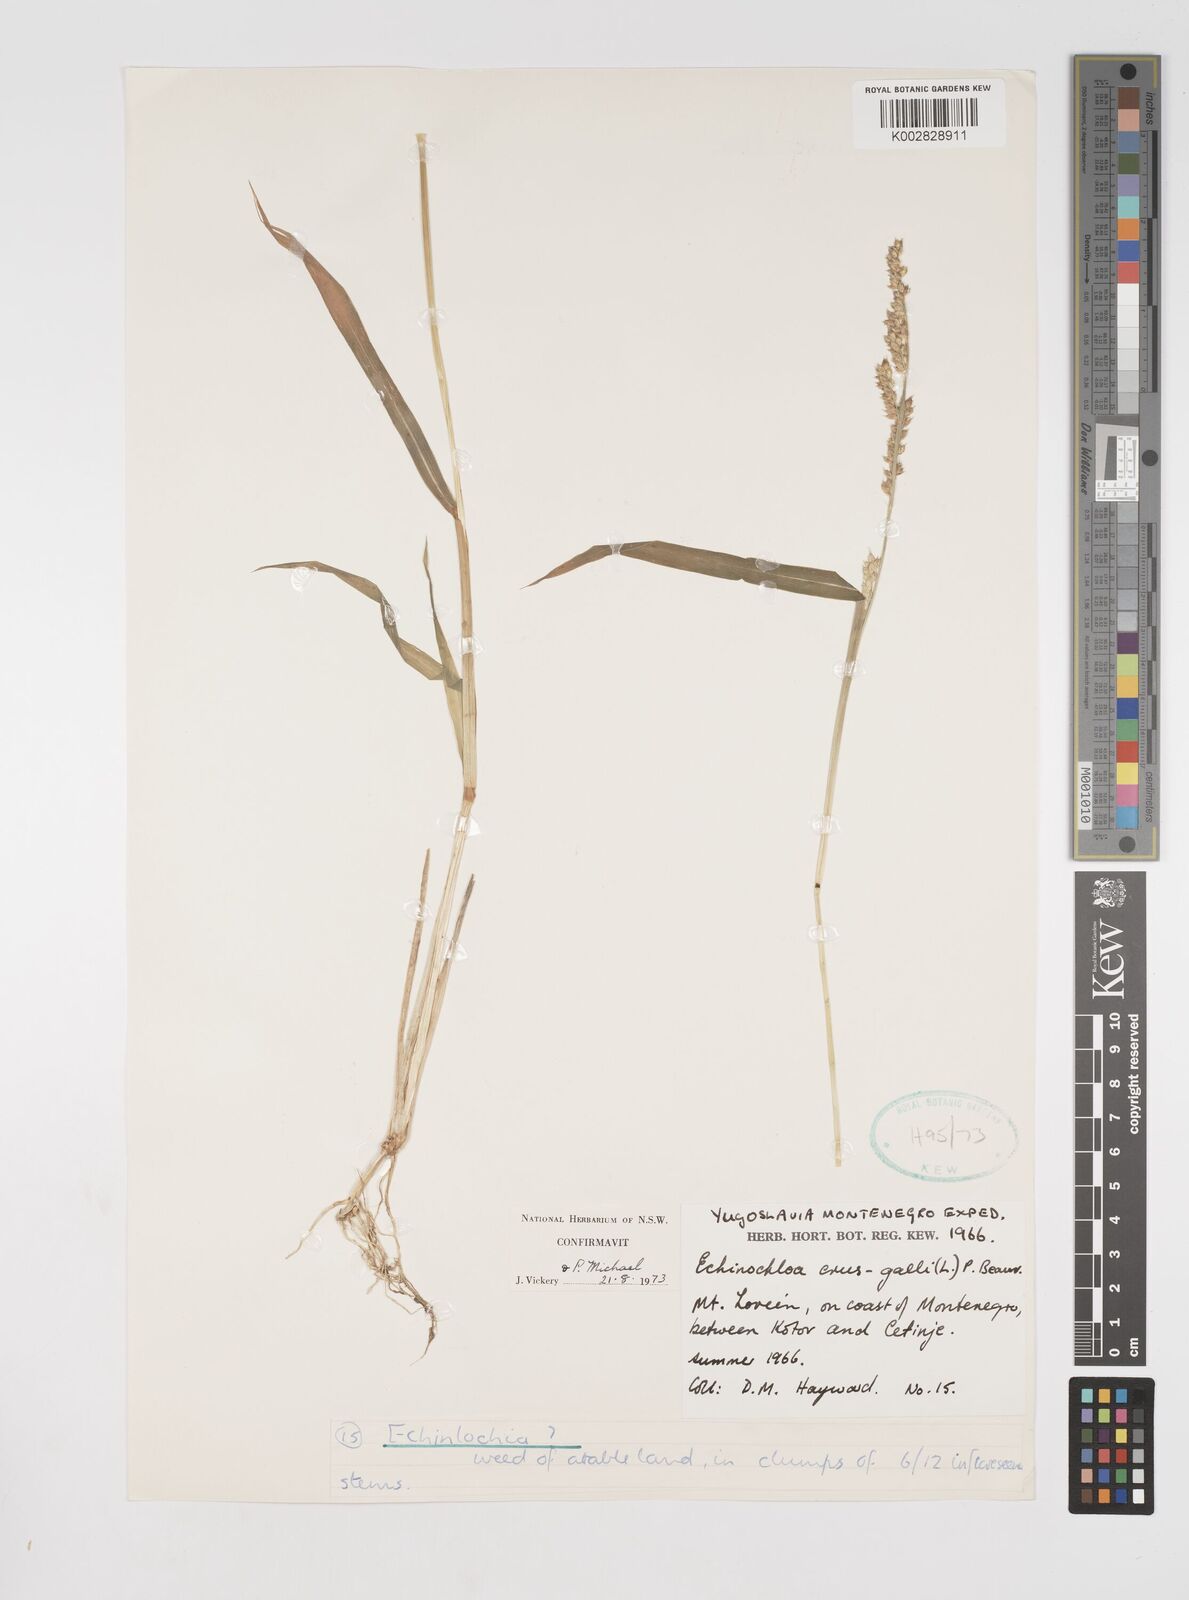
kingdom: Plantae
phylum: Tracheophyta
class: Liliopsida
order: Poales
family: Poaceae
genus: Echinochloa
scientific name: Echinochloa crus-galli
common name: Cockspur
